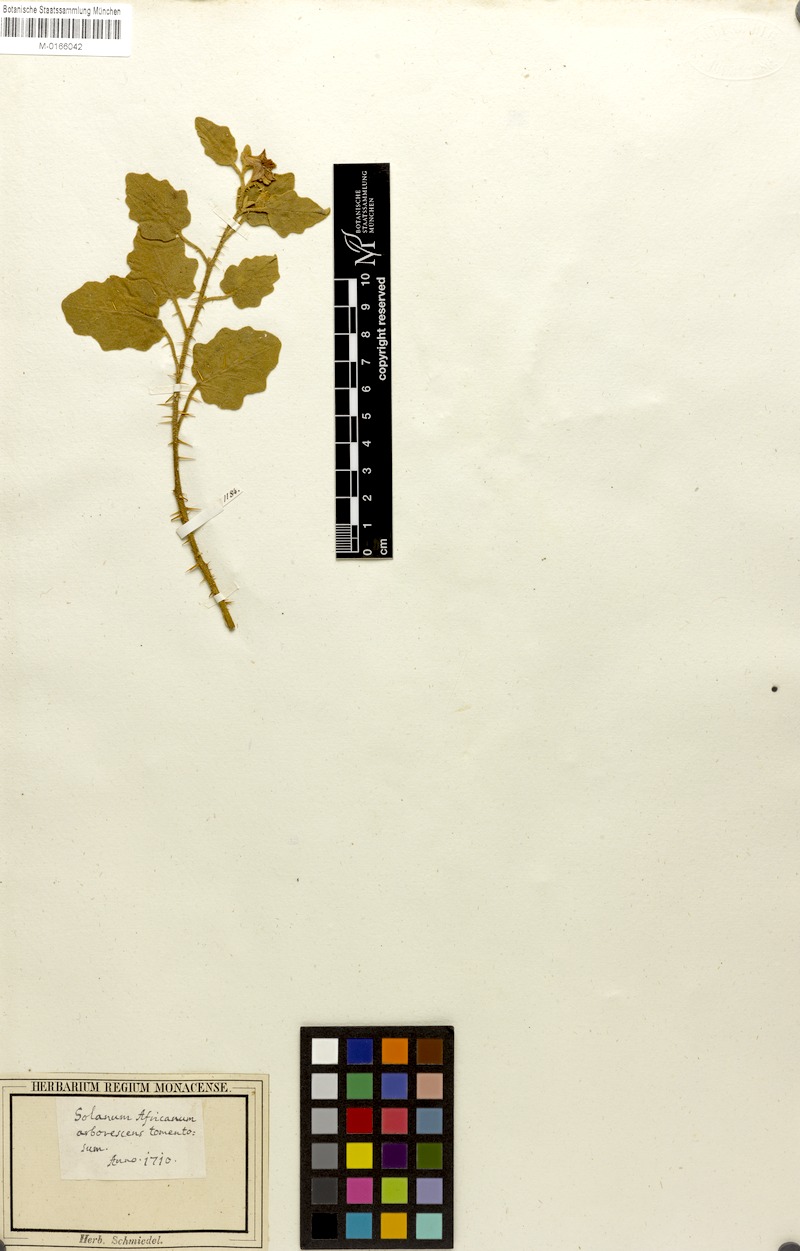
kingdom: Plantae
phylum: Tracheophyta
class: Magnoliopsida
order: Solanales
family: Solanaceae
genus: Solanum
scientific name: Solanum tomentosum
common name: Wild aubergine
